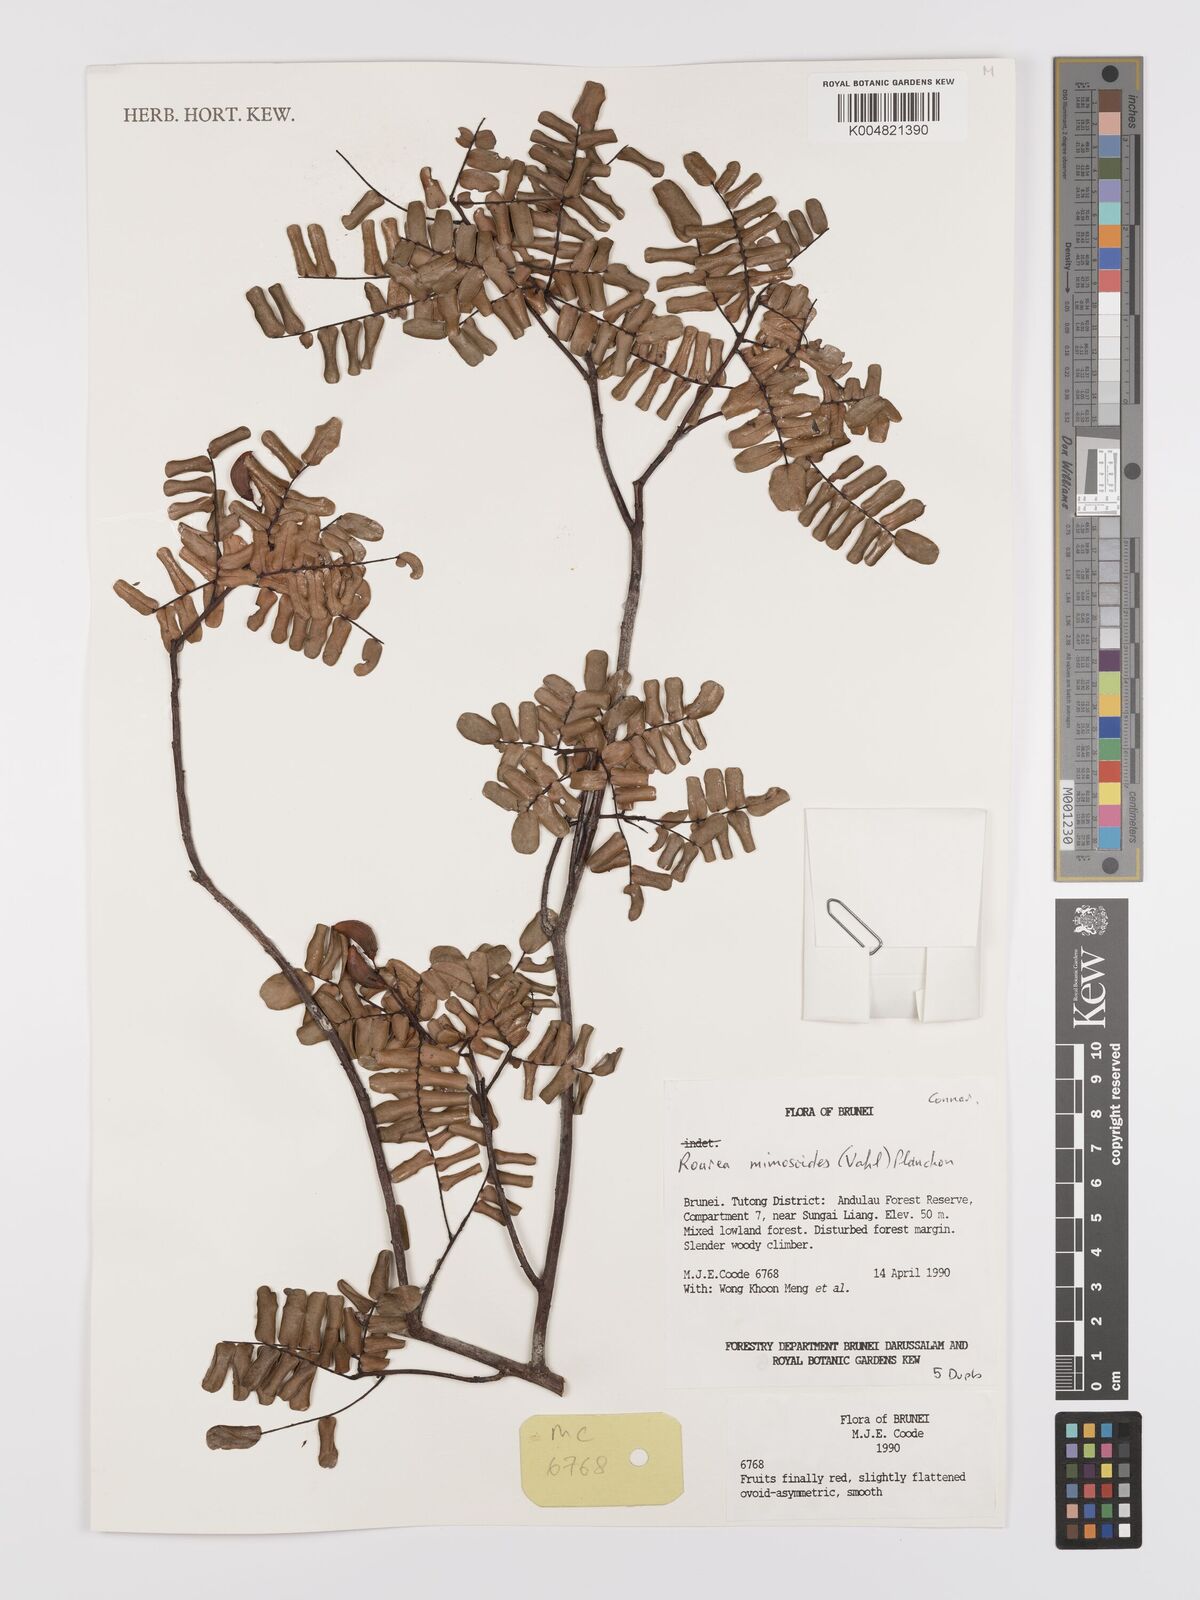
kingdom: Plantae
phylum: Tracheophyta
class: Magnoliopsida
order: Oxalidales
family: Connaraceae
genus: Rourea
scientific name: Rourea mimosoides
